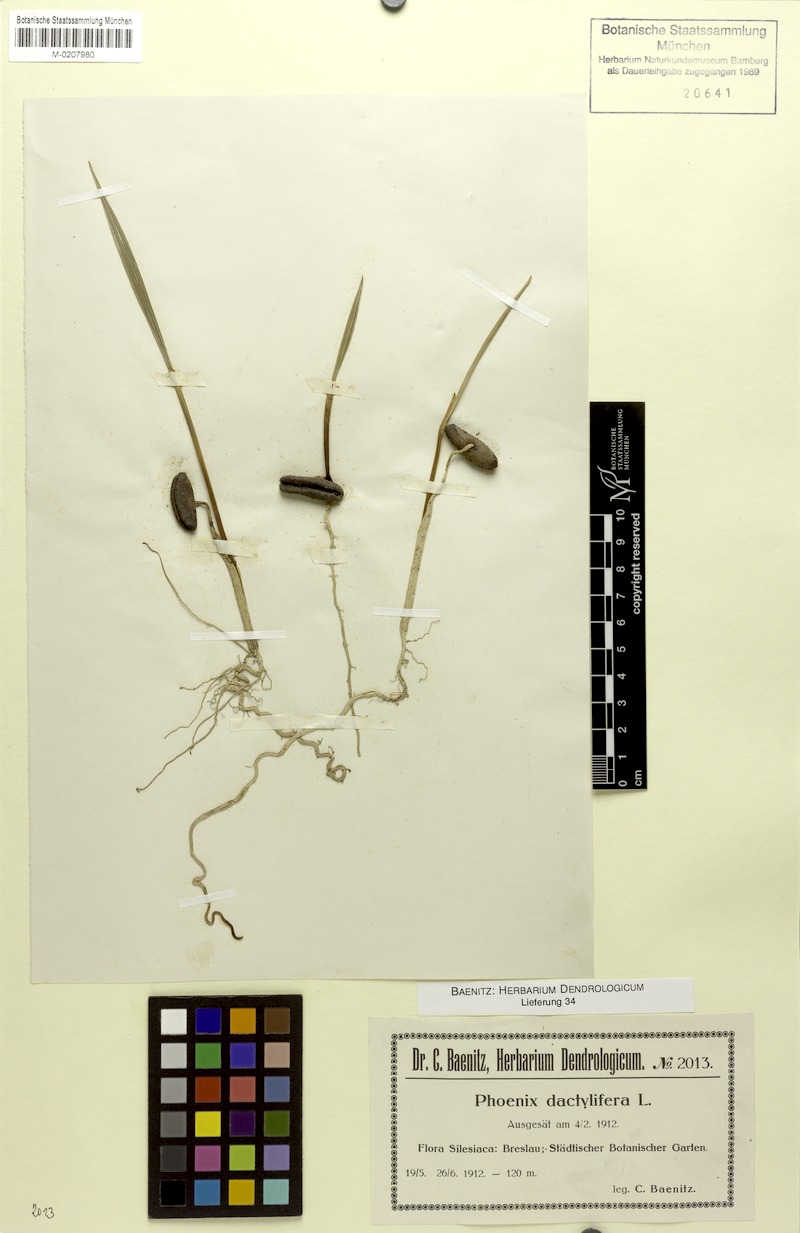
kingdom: Plantae
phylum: Tracheophyta
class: Liliopsida
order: Arecales
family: Arecaceae
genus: Phoenix
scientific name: Phoenix dactylifera
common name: Date palm
